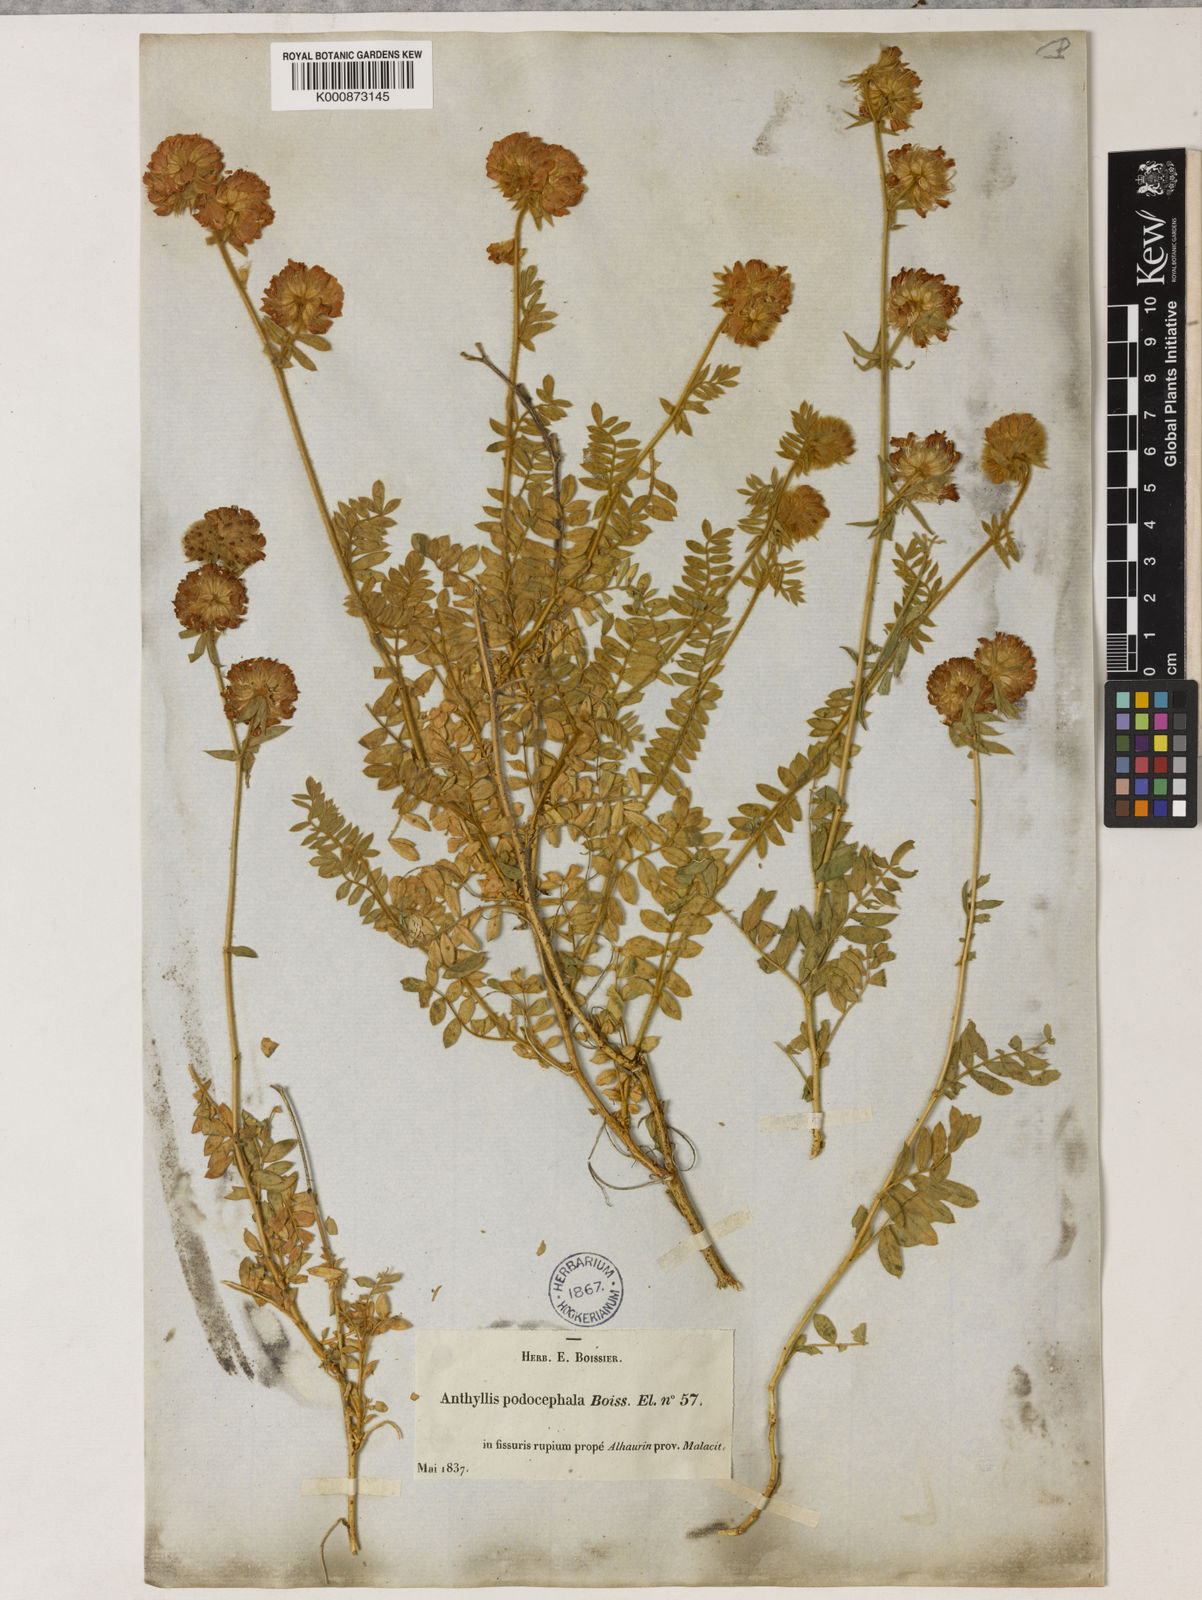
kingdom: Plantae
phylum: Tracheophyta
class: Magnoliopsida
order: Fabales
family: Fabaceae
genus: Anthyllis
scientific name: Anthyllis polycephala
